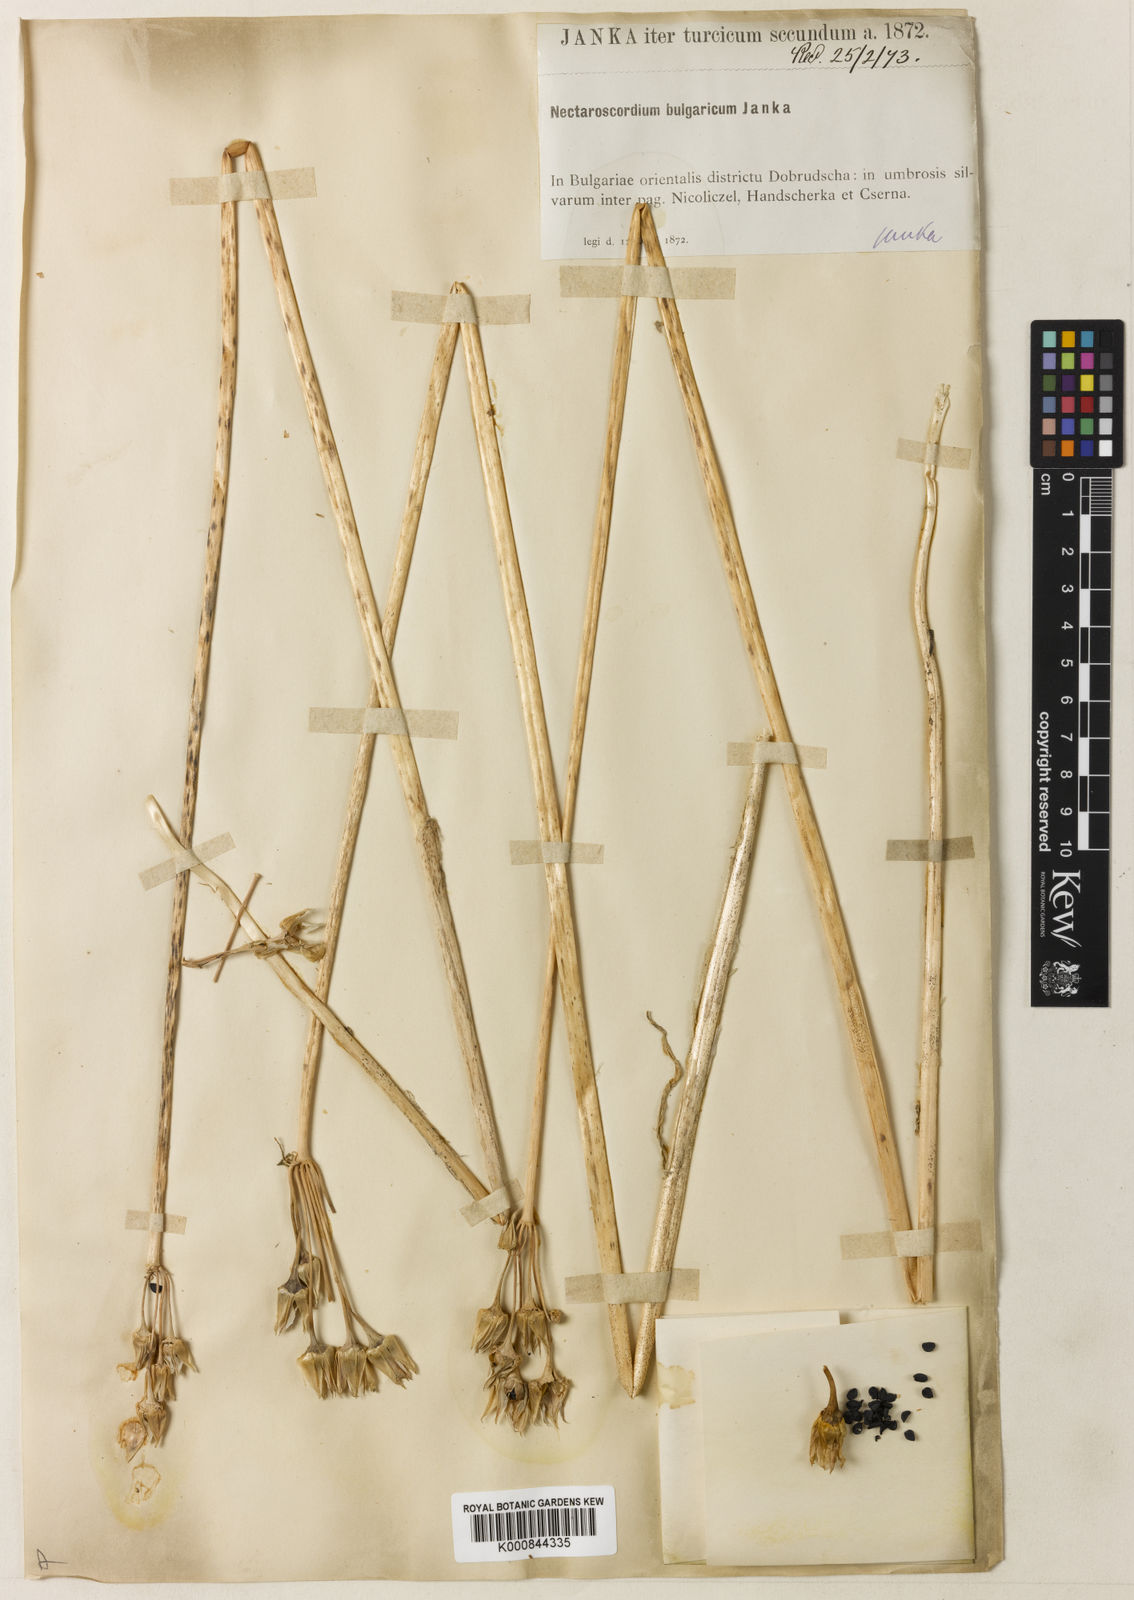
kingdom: Plantae
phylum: Tracheophyta
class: Liliopsida
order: Asparagales
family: Amaryllidaceae
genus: Allium
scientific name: Allium siculum
